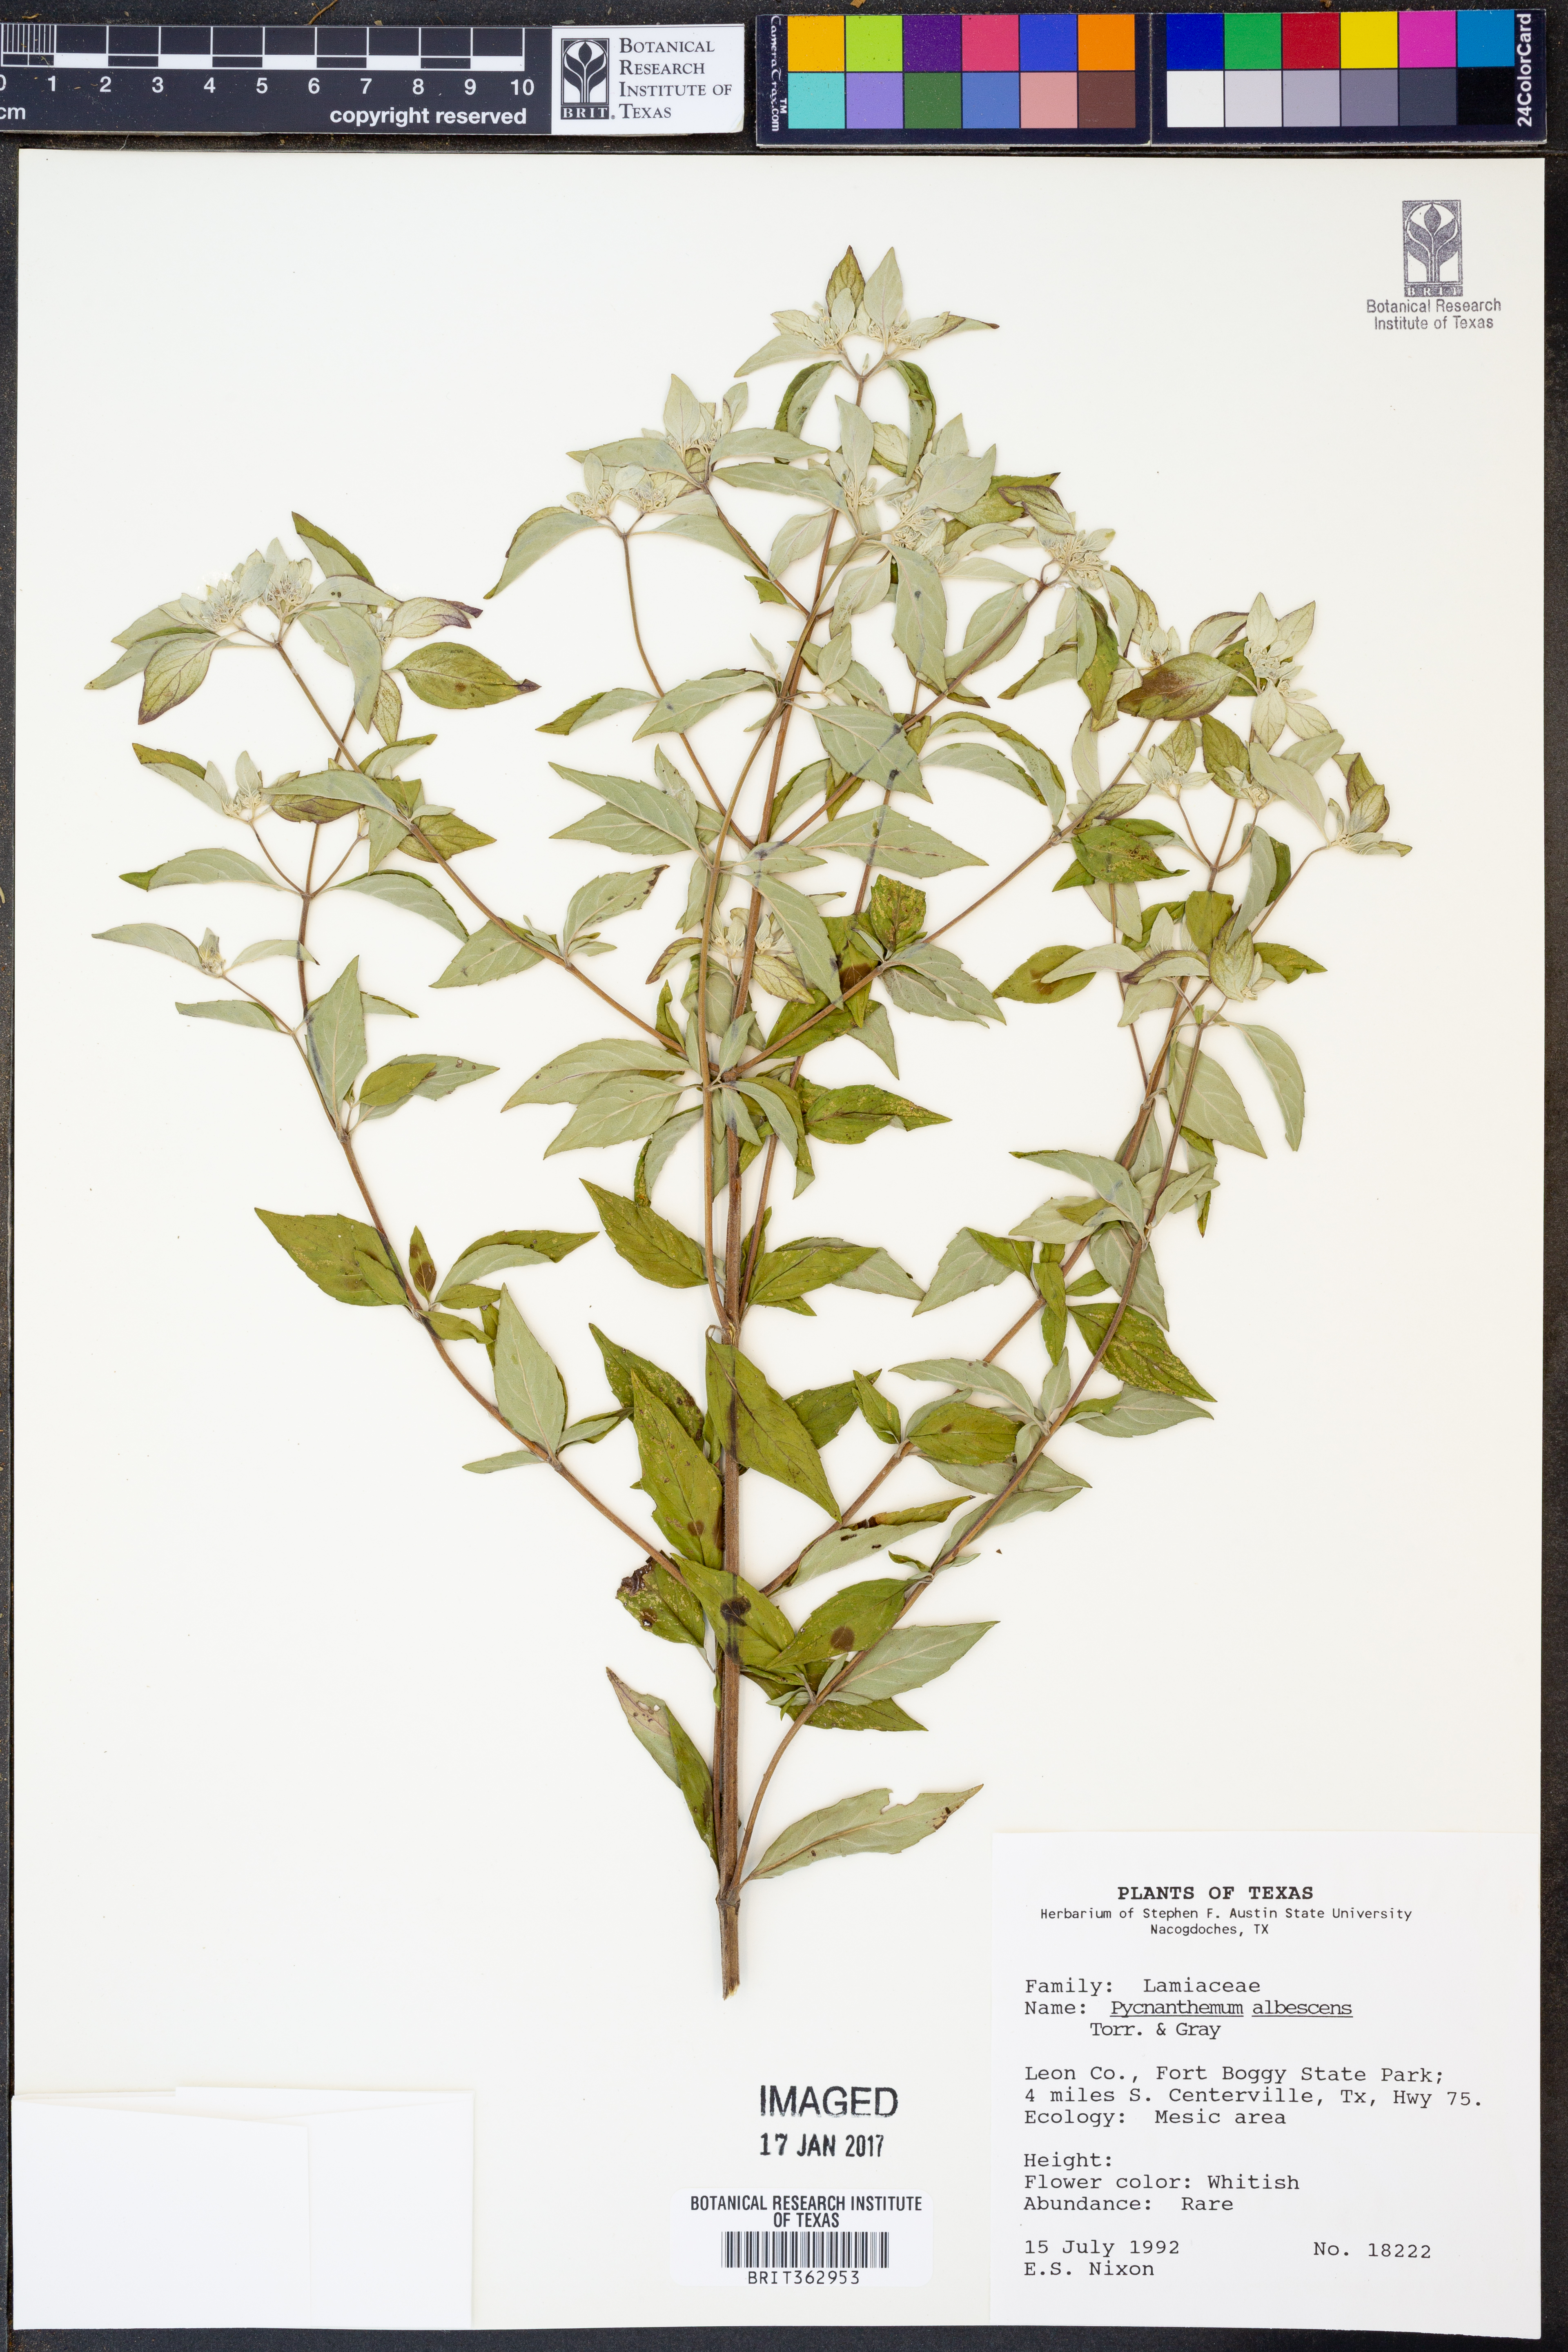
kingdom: Plantae
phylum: Tracheophyta
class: Magnoliopsida
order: Lamiales
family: Lamiaceae
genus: Pycnanthemum
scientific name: Pycnanthemum albescens
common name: White-leaf mountain-mint
